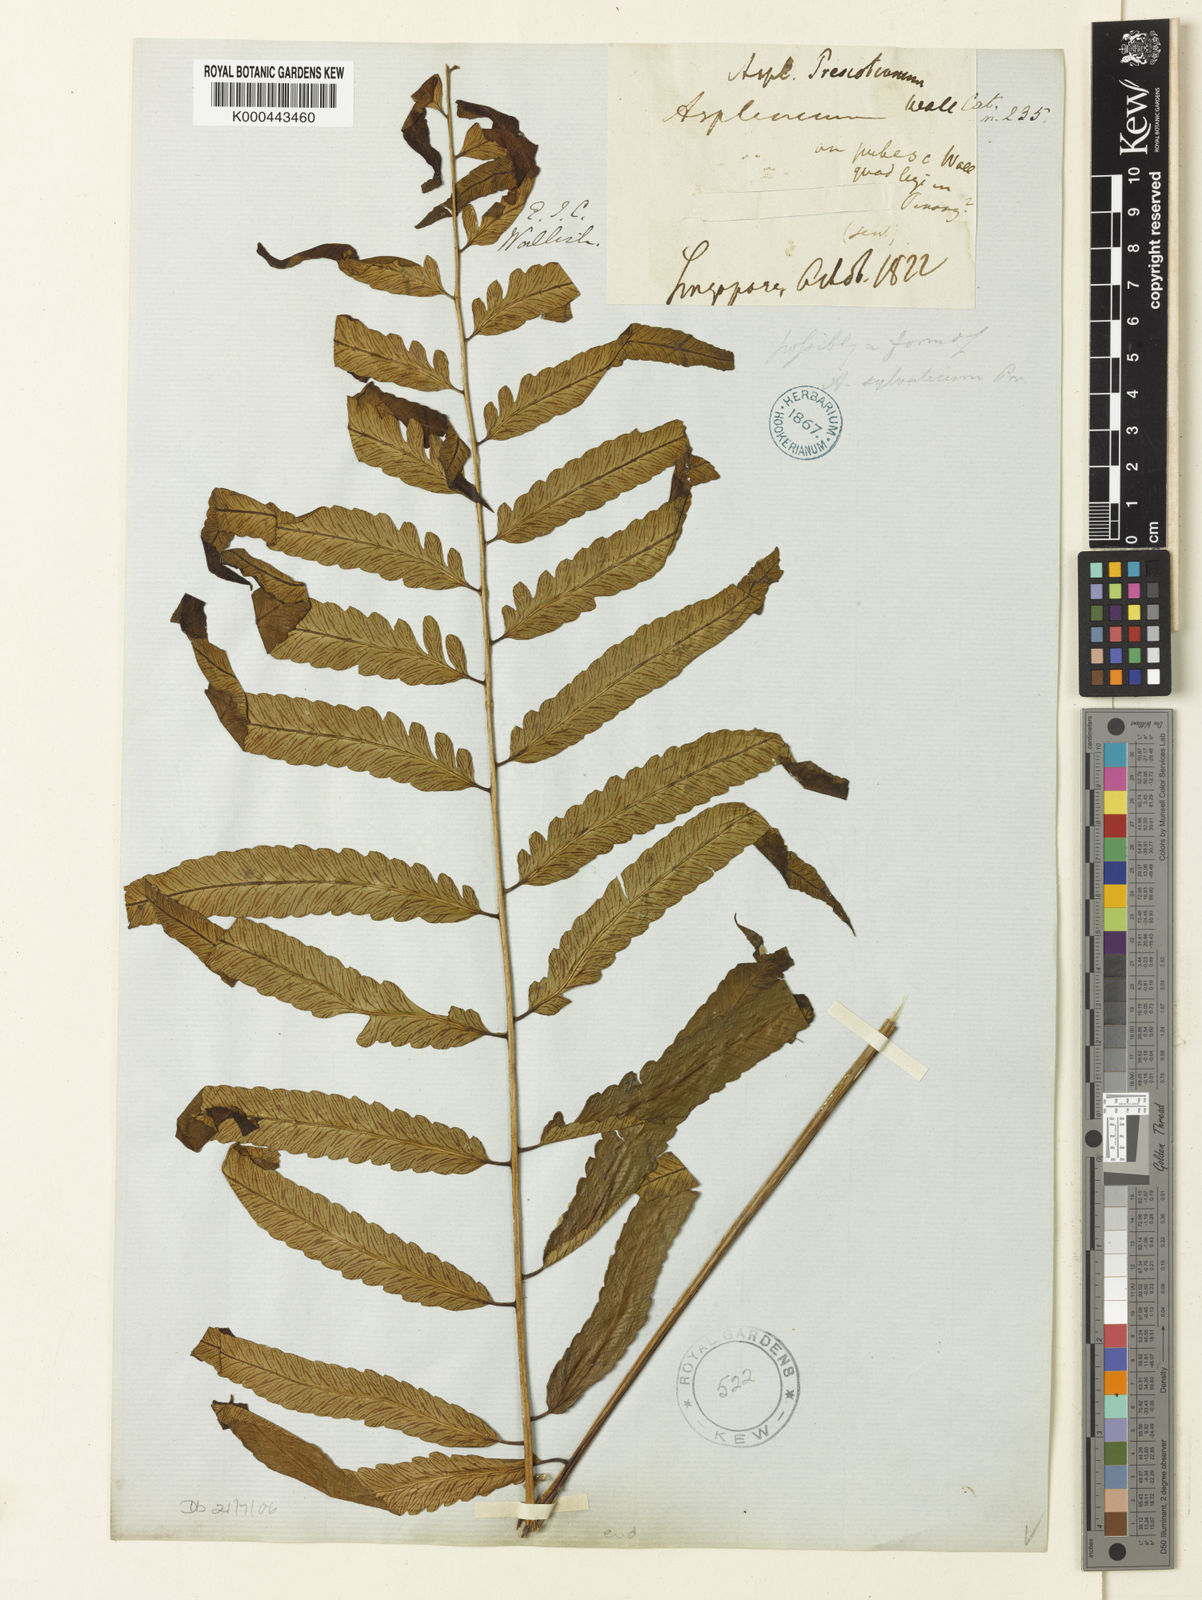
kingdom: Plantae
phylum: Tracheophyta
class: Polypodiopsida
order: Polypodiales
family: Athyriaceae
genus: Diplazium
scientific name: Diplazium mixtum
